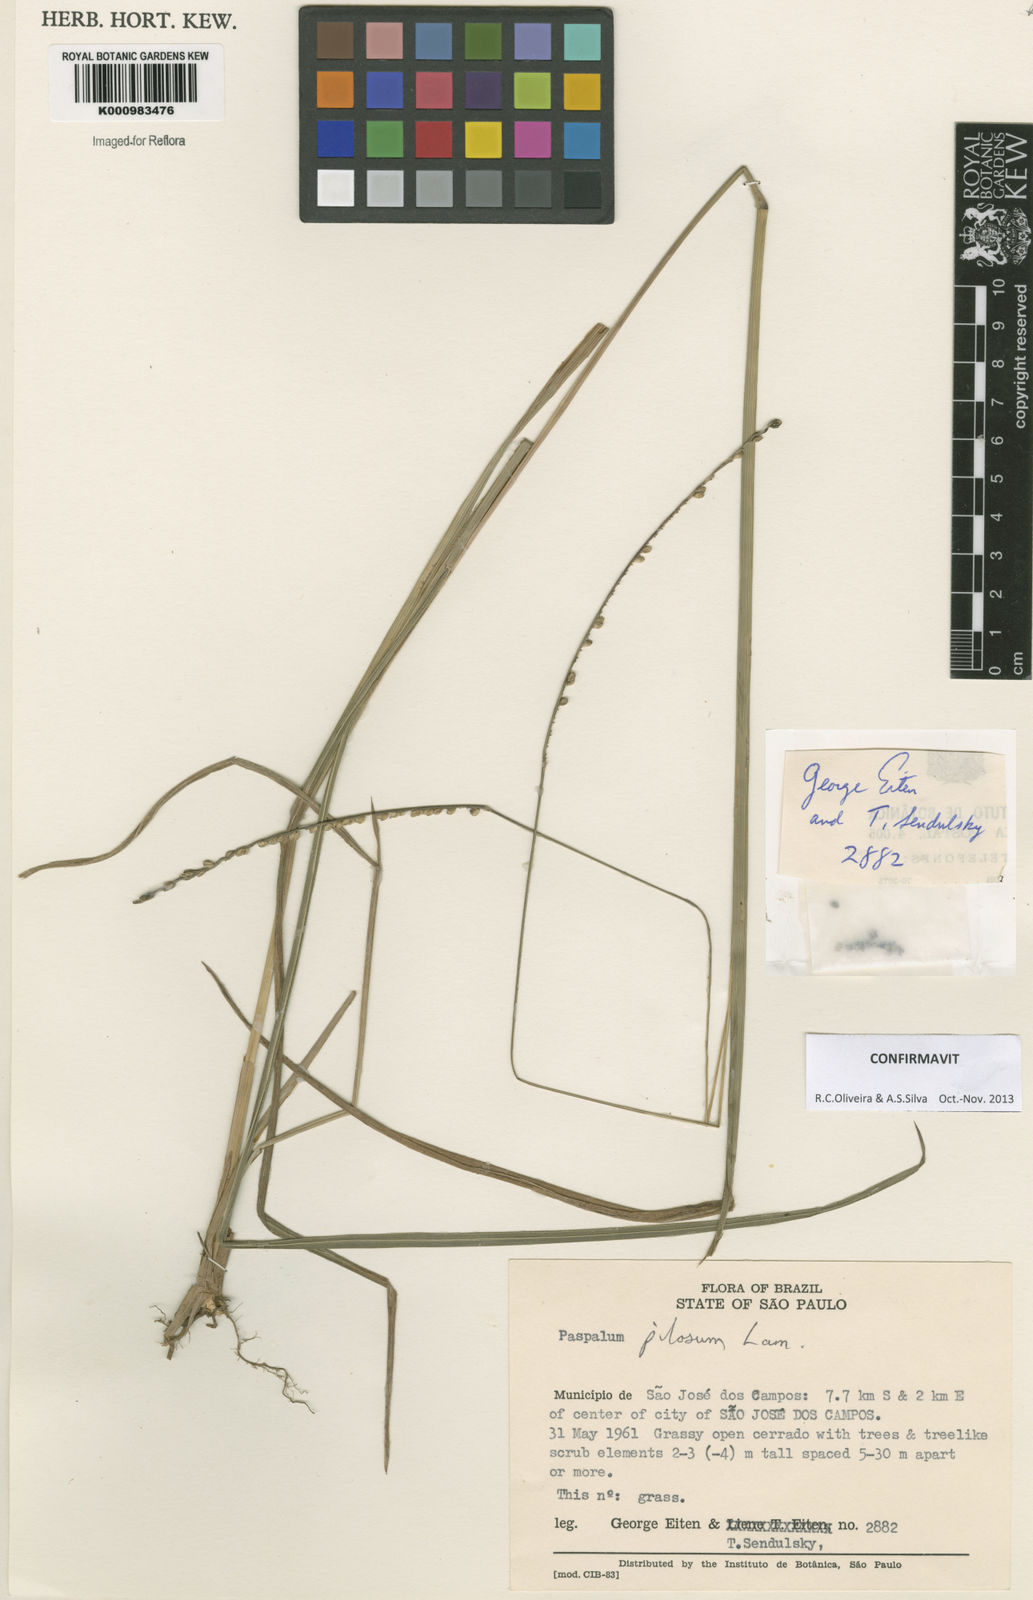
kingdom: Plantae
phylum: Tracheophyta
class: Liliopsida
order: Poales
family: Poaceae
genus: Paspalum
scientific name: Paspalum pilosum
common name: Crowngrass
